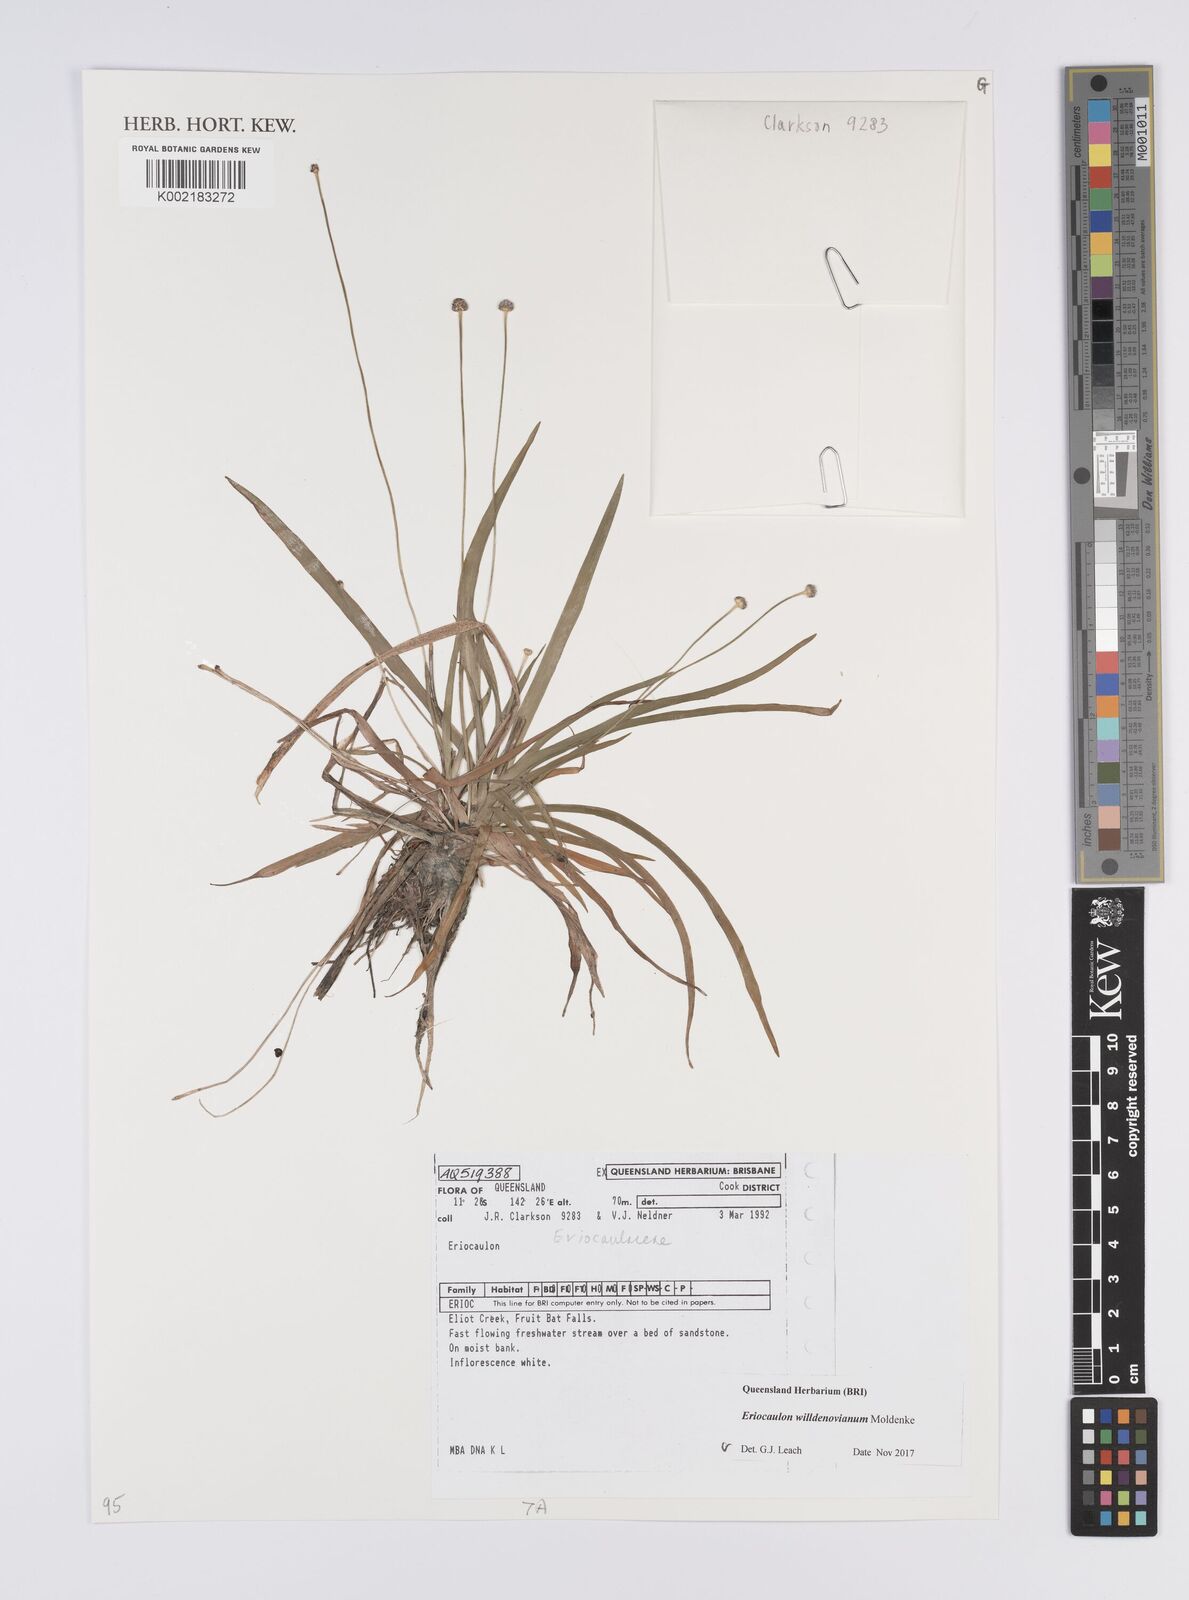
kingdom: Plantae
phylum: Tracheophyta
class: Liliopsida
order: Poales
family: Eriocaulaceae
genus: Eriocaulon
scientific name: Eriocaulon willdenovianum
